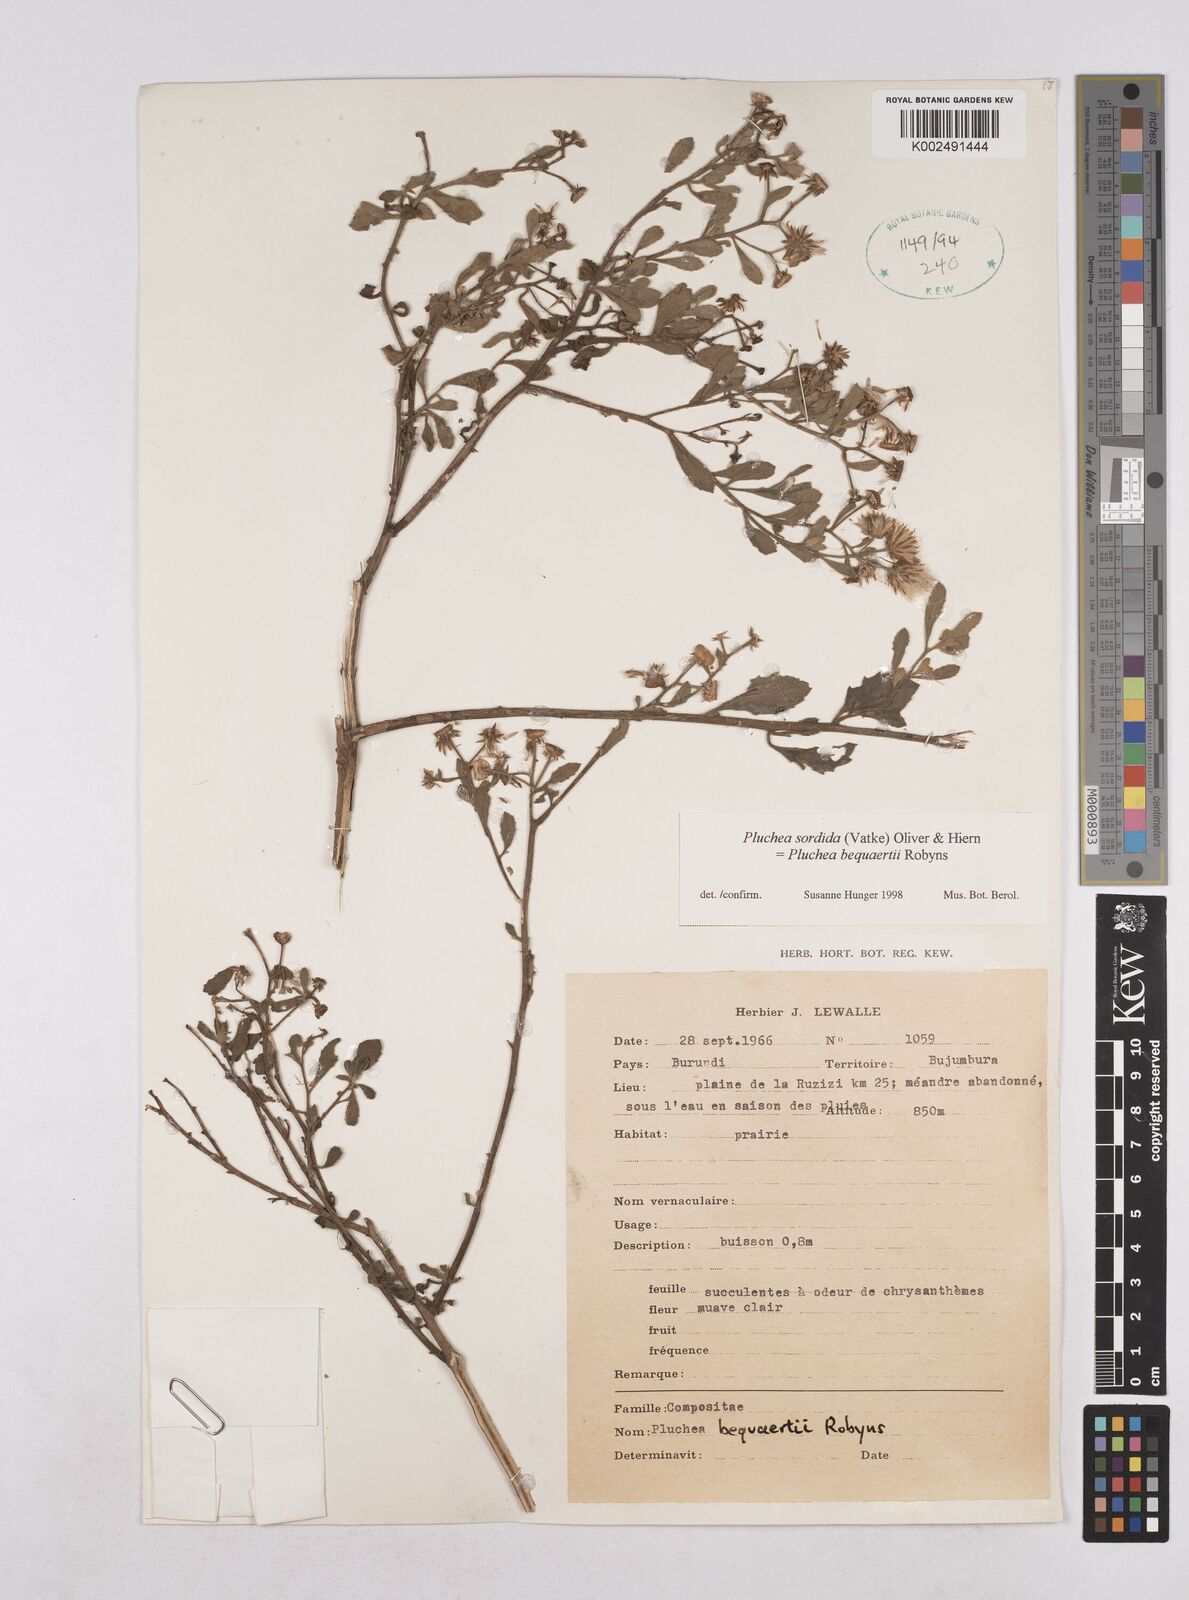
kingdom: Plantae
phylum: Tracheophyta
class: Magnoliopsida
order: Asterales
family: Asteraceae
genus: Pluchea
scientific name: Pluchea sordida
